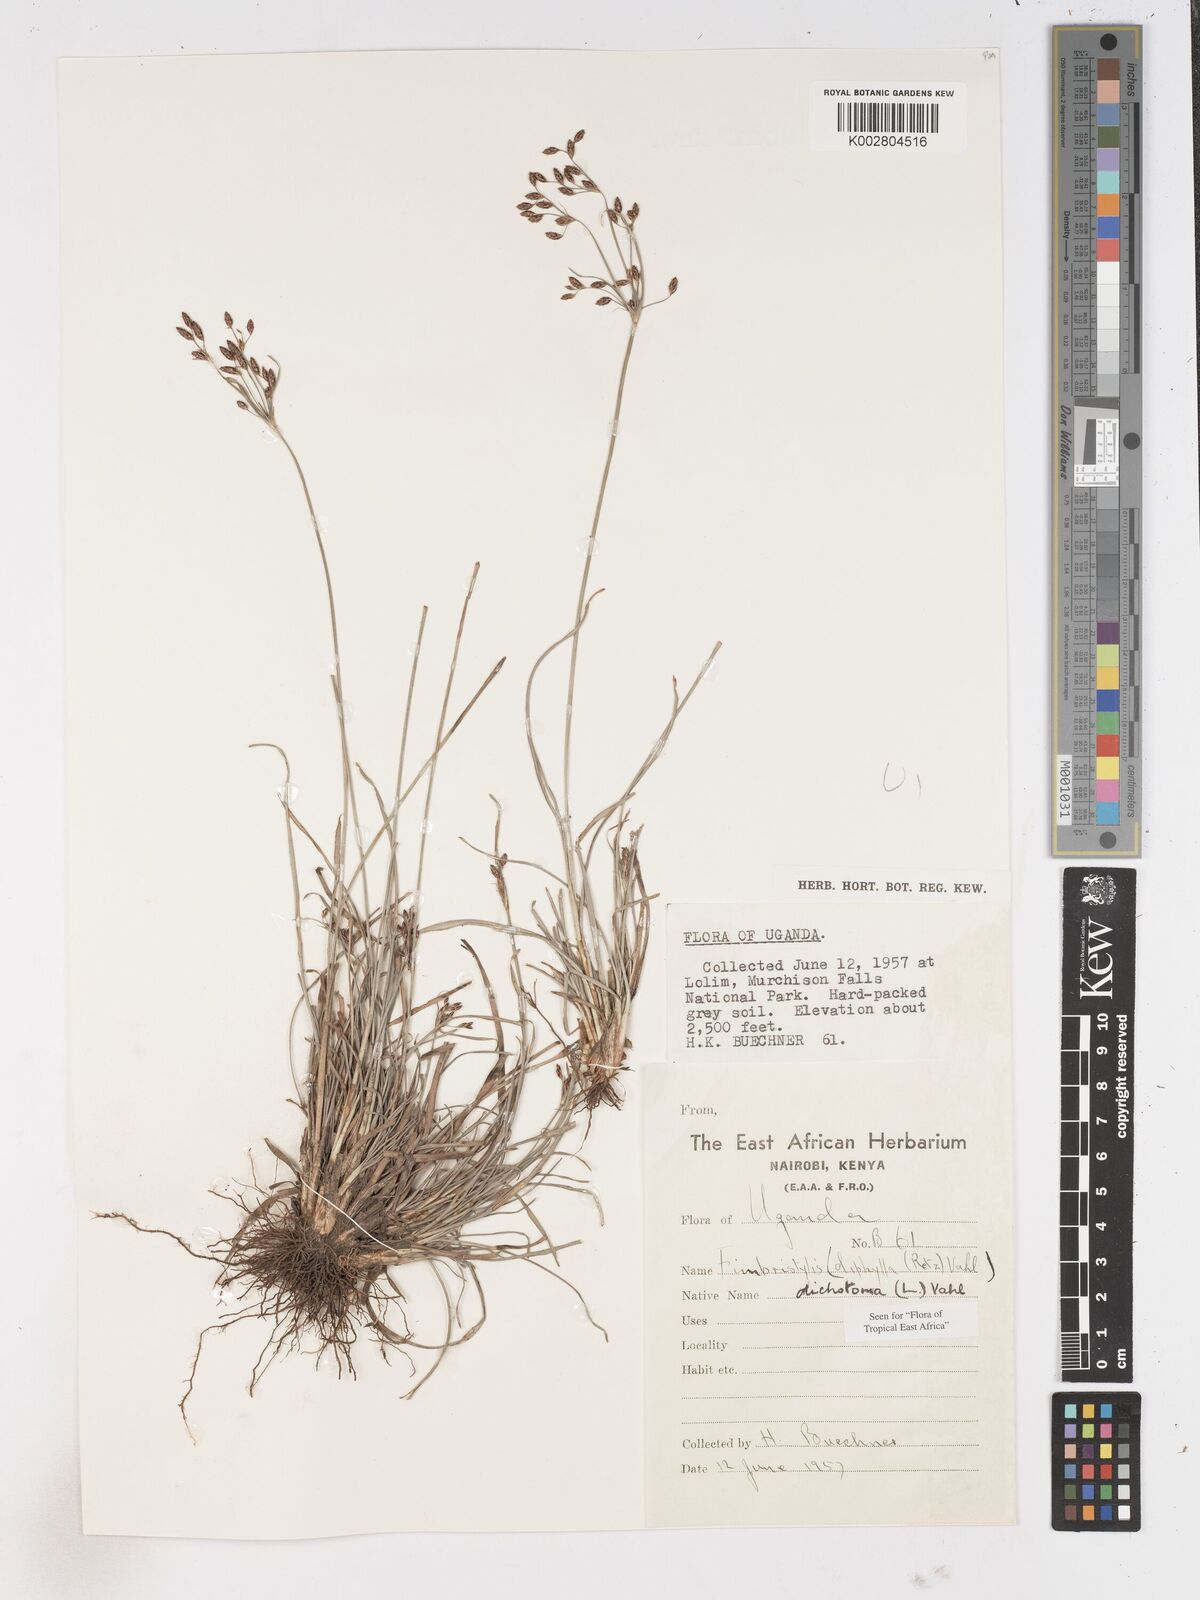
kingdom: Plantae
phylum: Tracheophyta
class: Liliopsida
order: Poales
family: Cyperaceae
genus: Fimbristylis
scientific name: Fimbristylis dichotoma
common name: Forked fimbry
